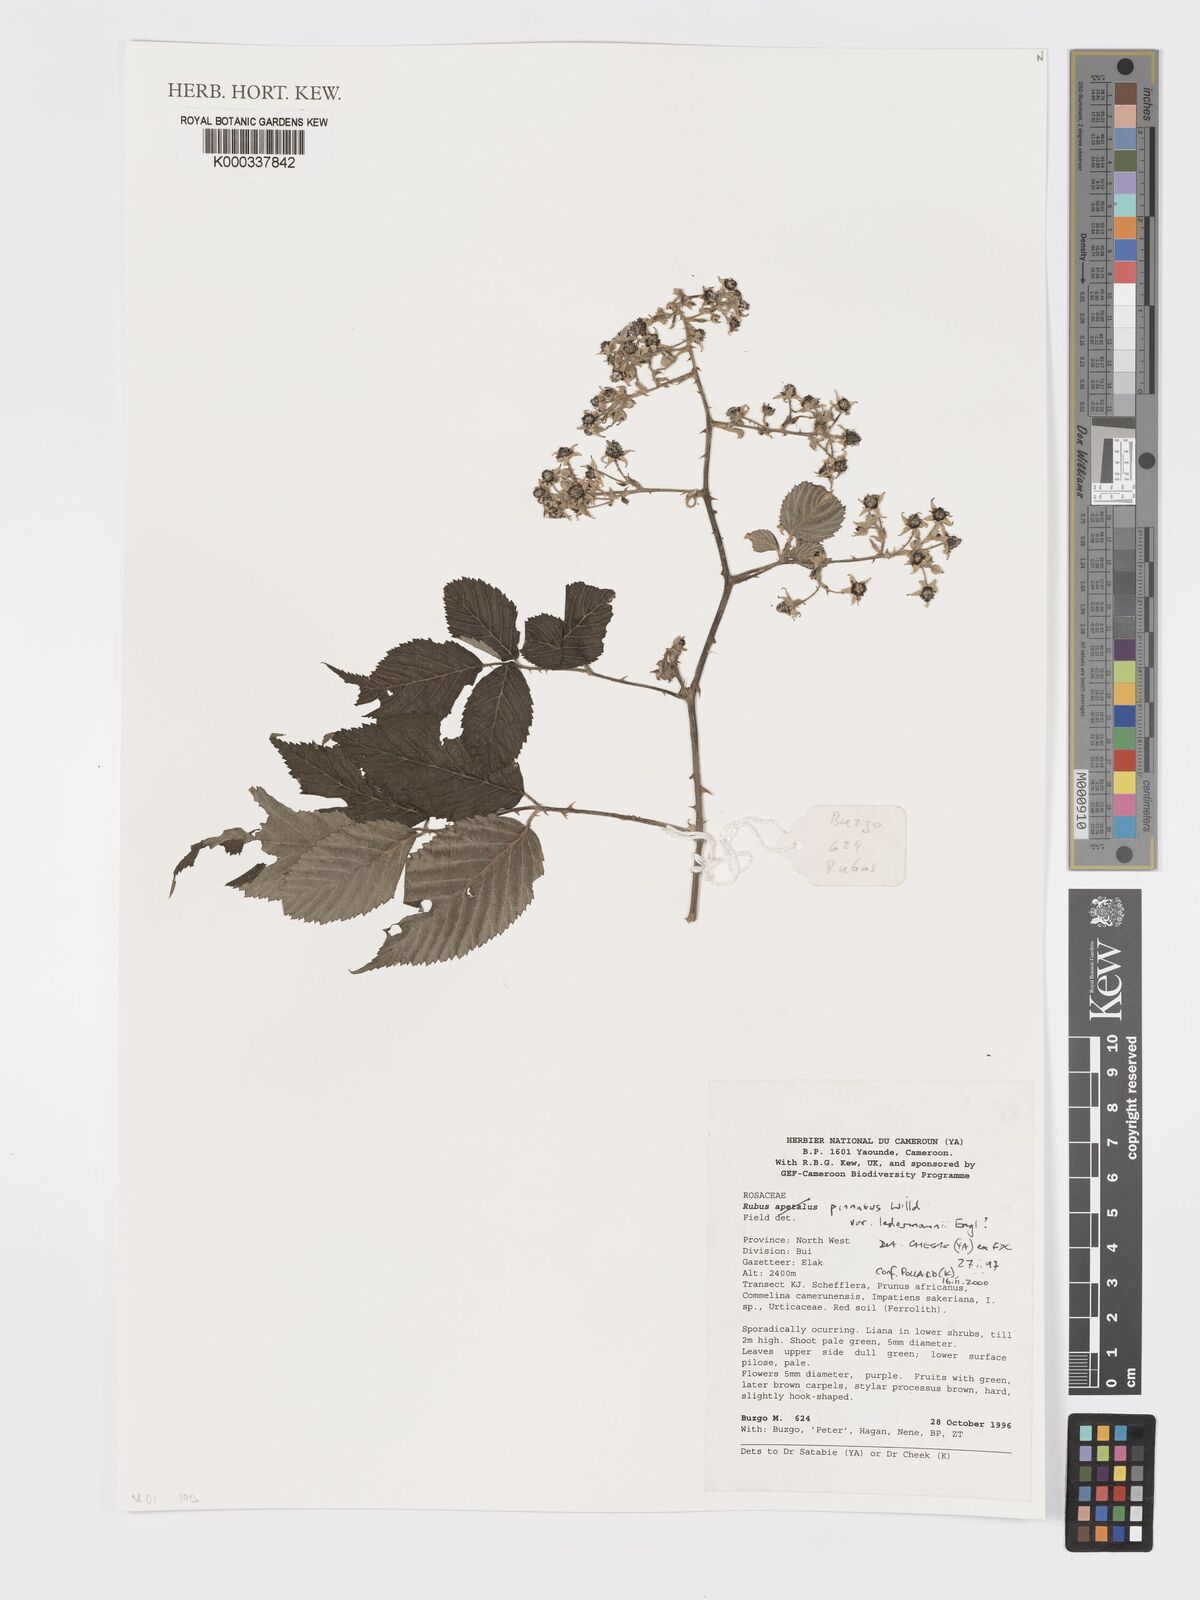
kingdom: Plantae
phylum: Tracheophyta
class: Magnoliopsida
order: Rosales
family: Rosaceae
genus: Rubus
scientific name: Rubus pinnatus
